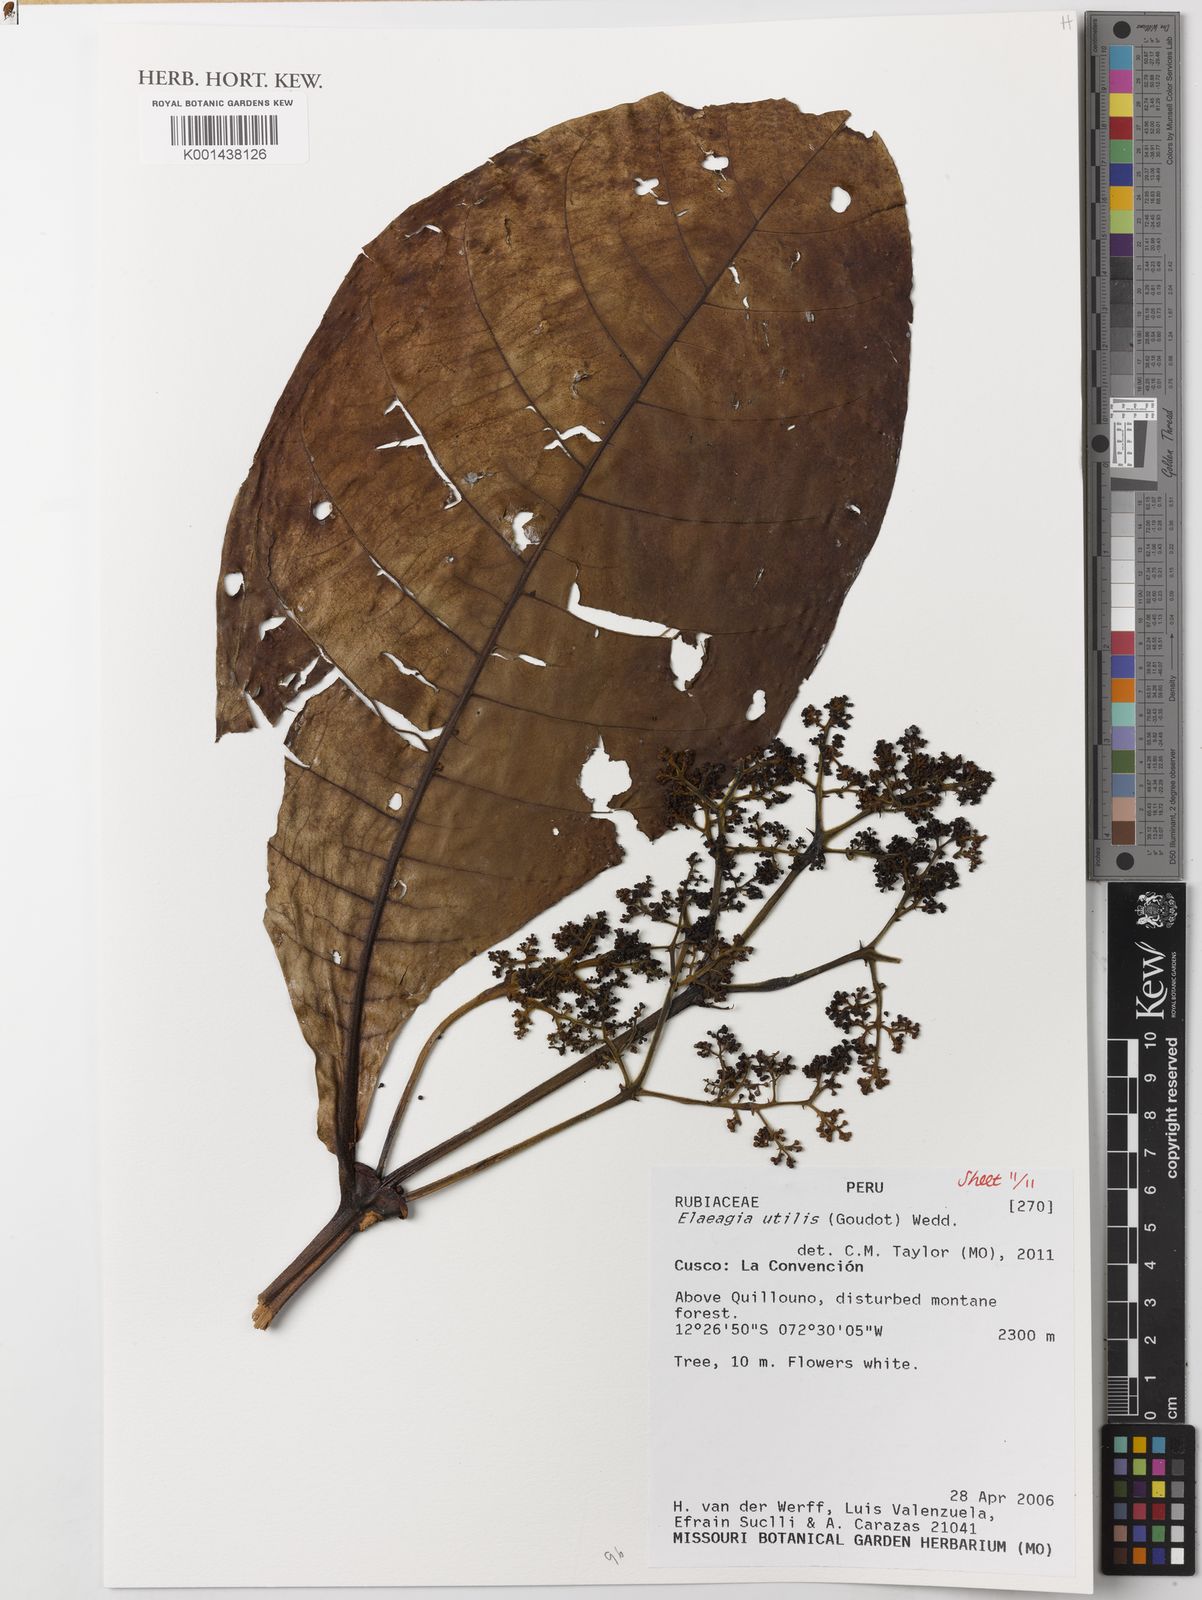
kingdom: Plantae
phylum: Tracheophyta
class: Magnoliopsida
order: Gentianales
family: Rubiaceae
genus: Elaeagia
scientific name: Elaeagia utilis
